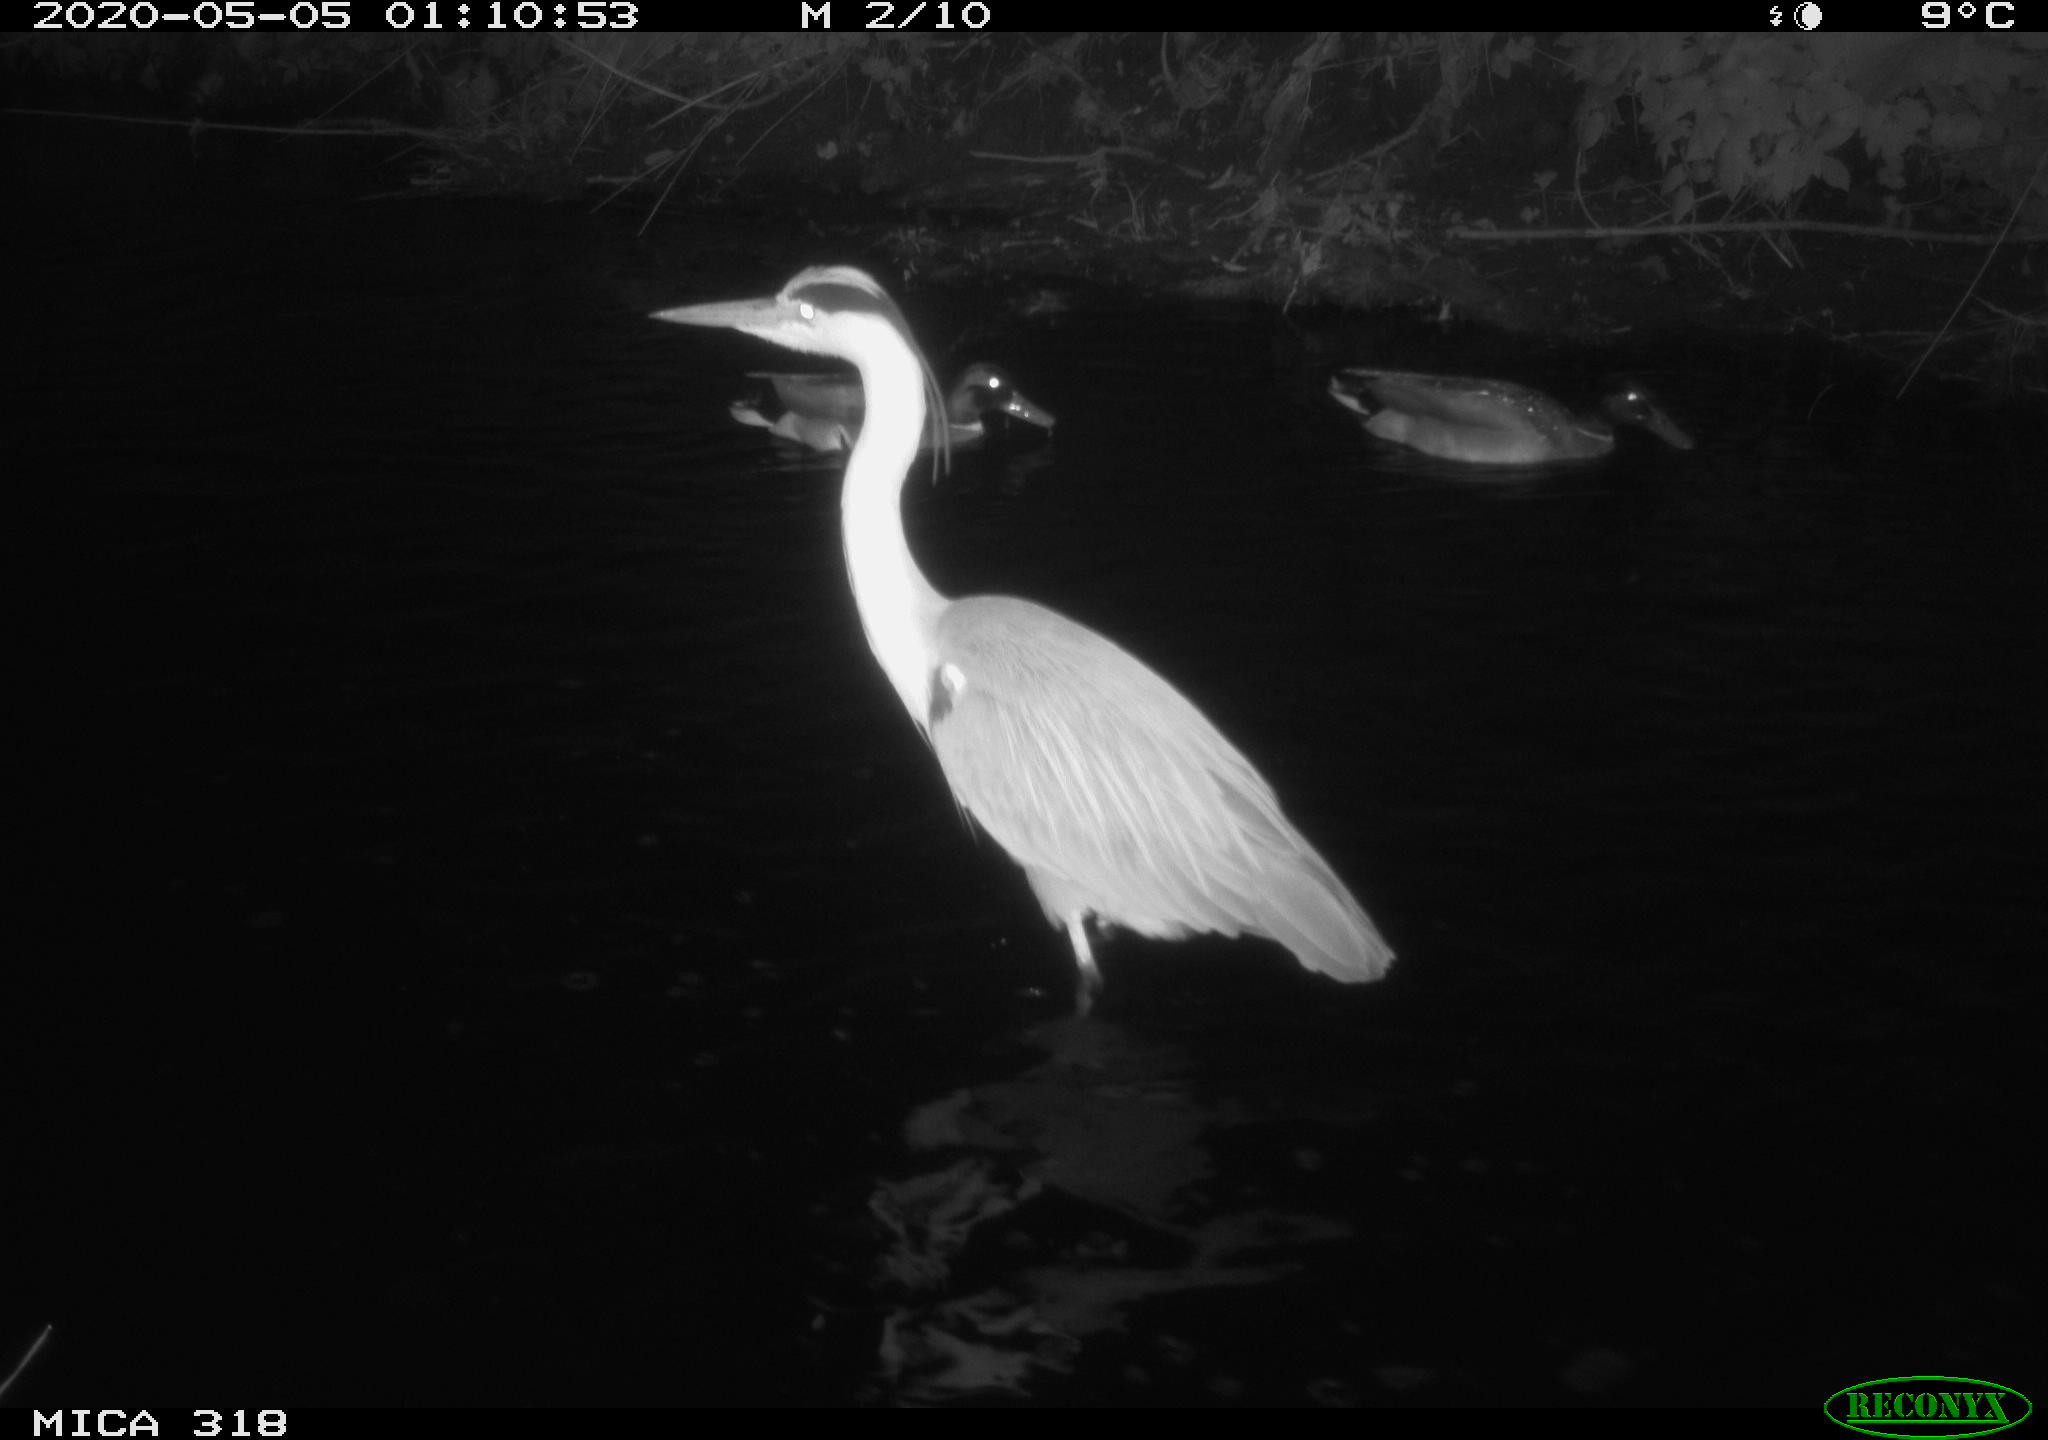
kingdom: Animalia
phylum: Chordata
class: Aves
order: Pelecaniformes
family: Ardeidae
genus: Ardea
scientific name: Ardea cinerea
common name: Grey heron
